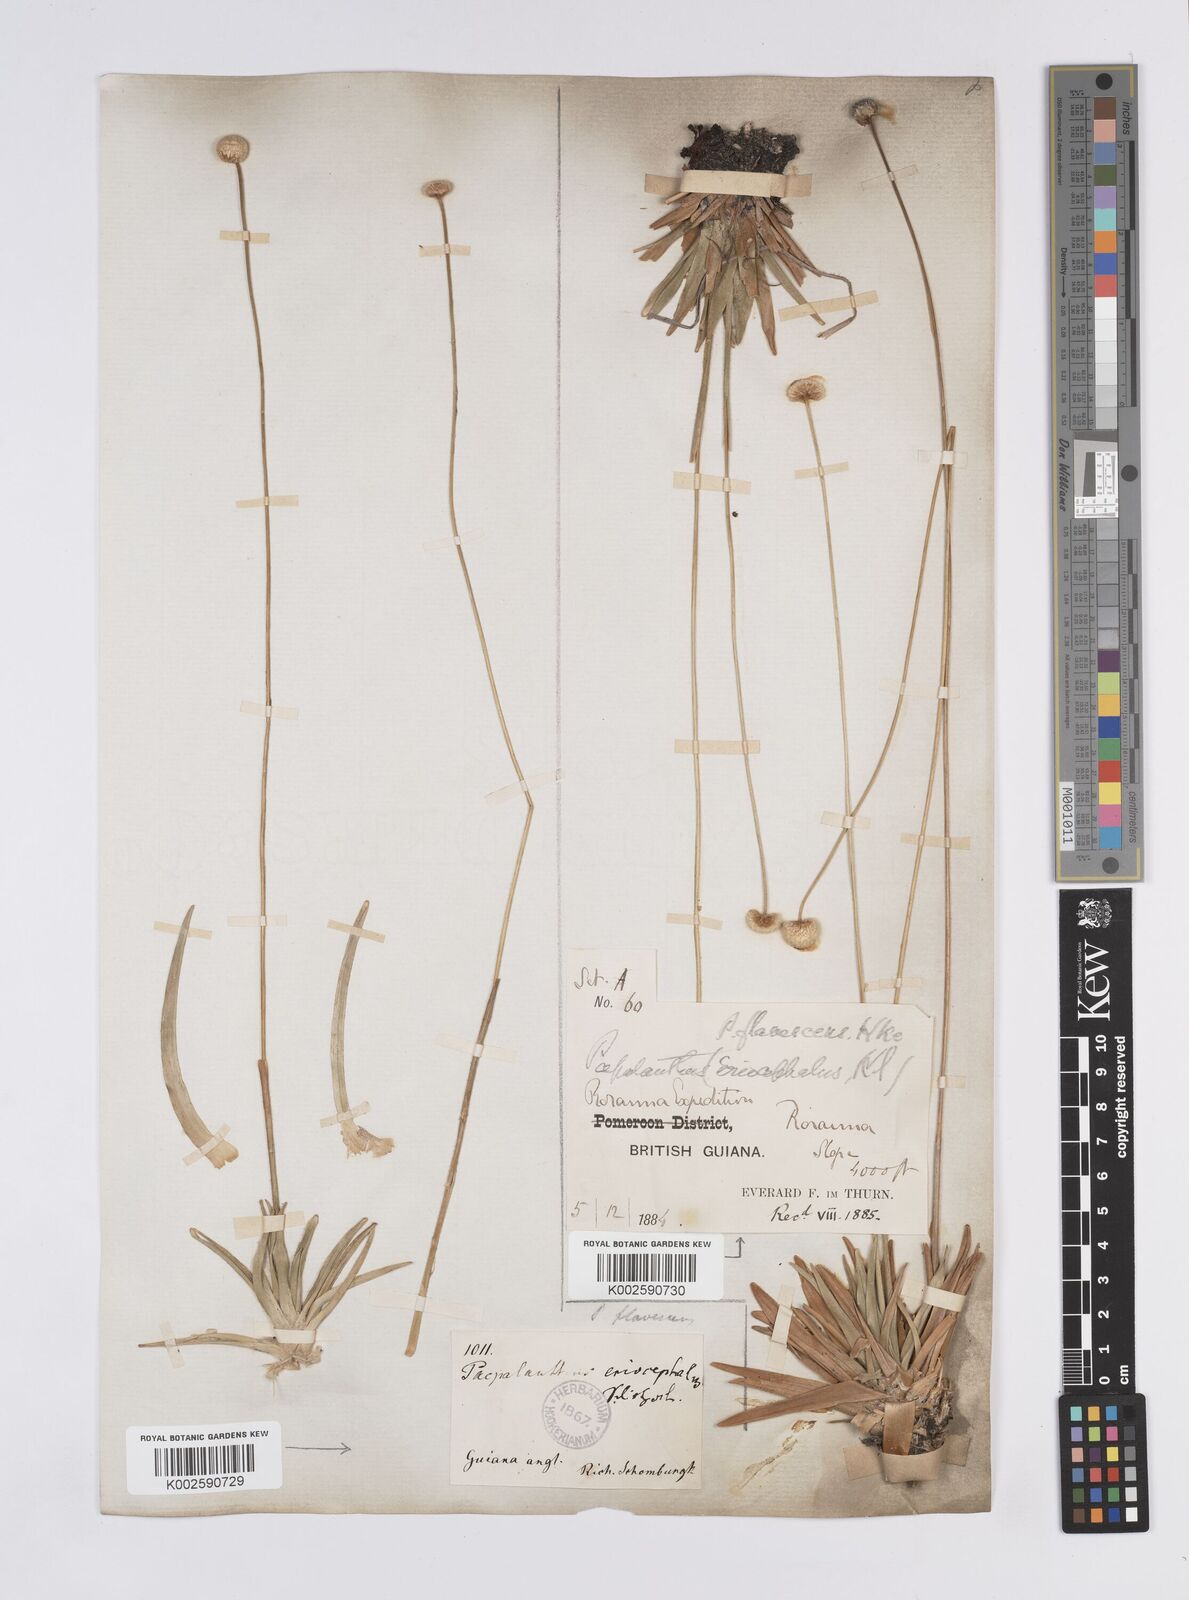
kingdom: Plantae
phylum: Tracheophyta
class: Liliopsida
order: Poales
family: Eriocaulaceae
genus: Leiothrix
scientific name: Leiothrix flavescens
